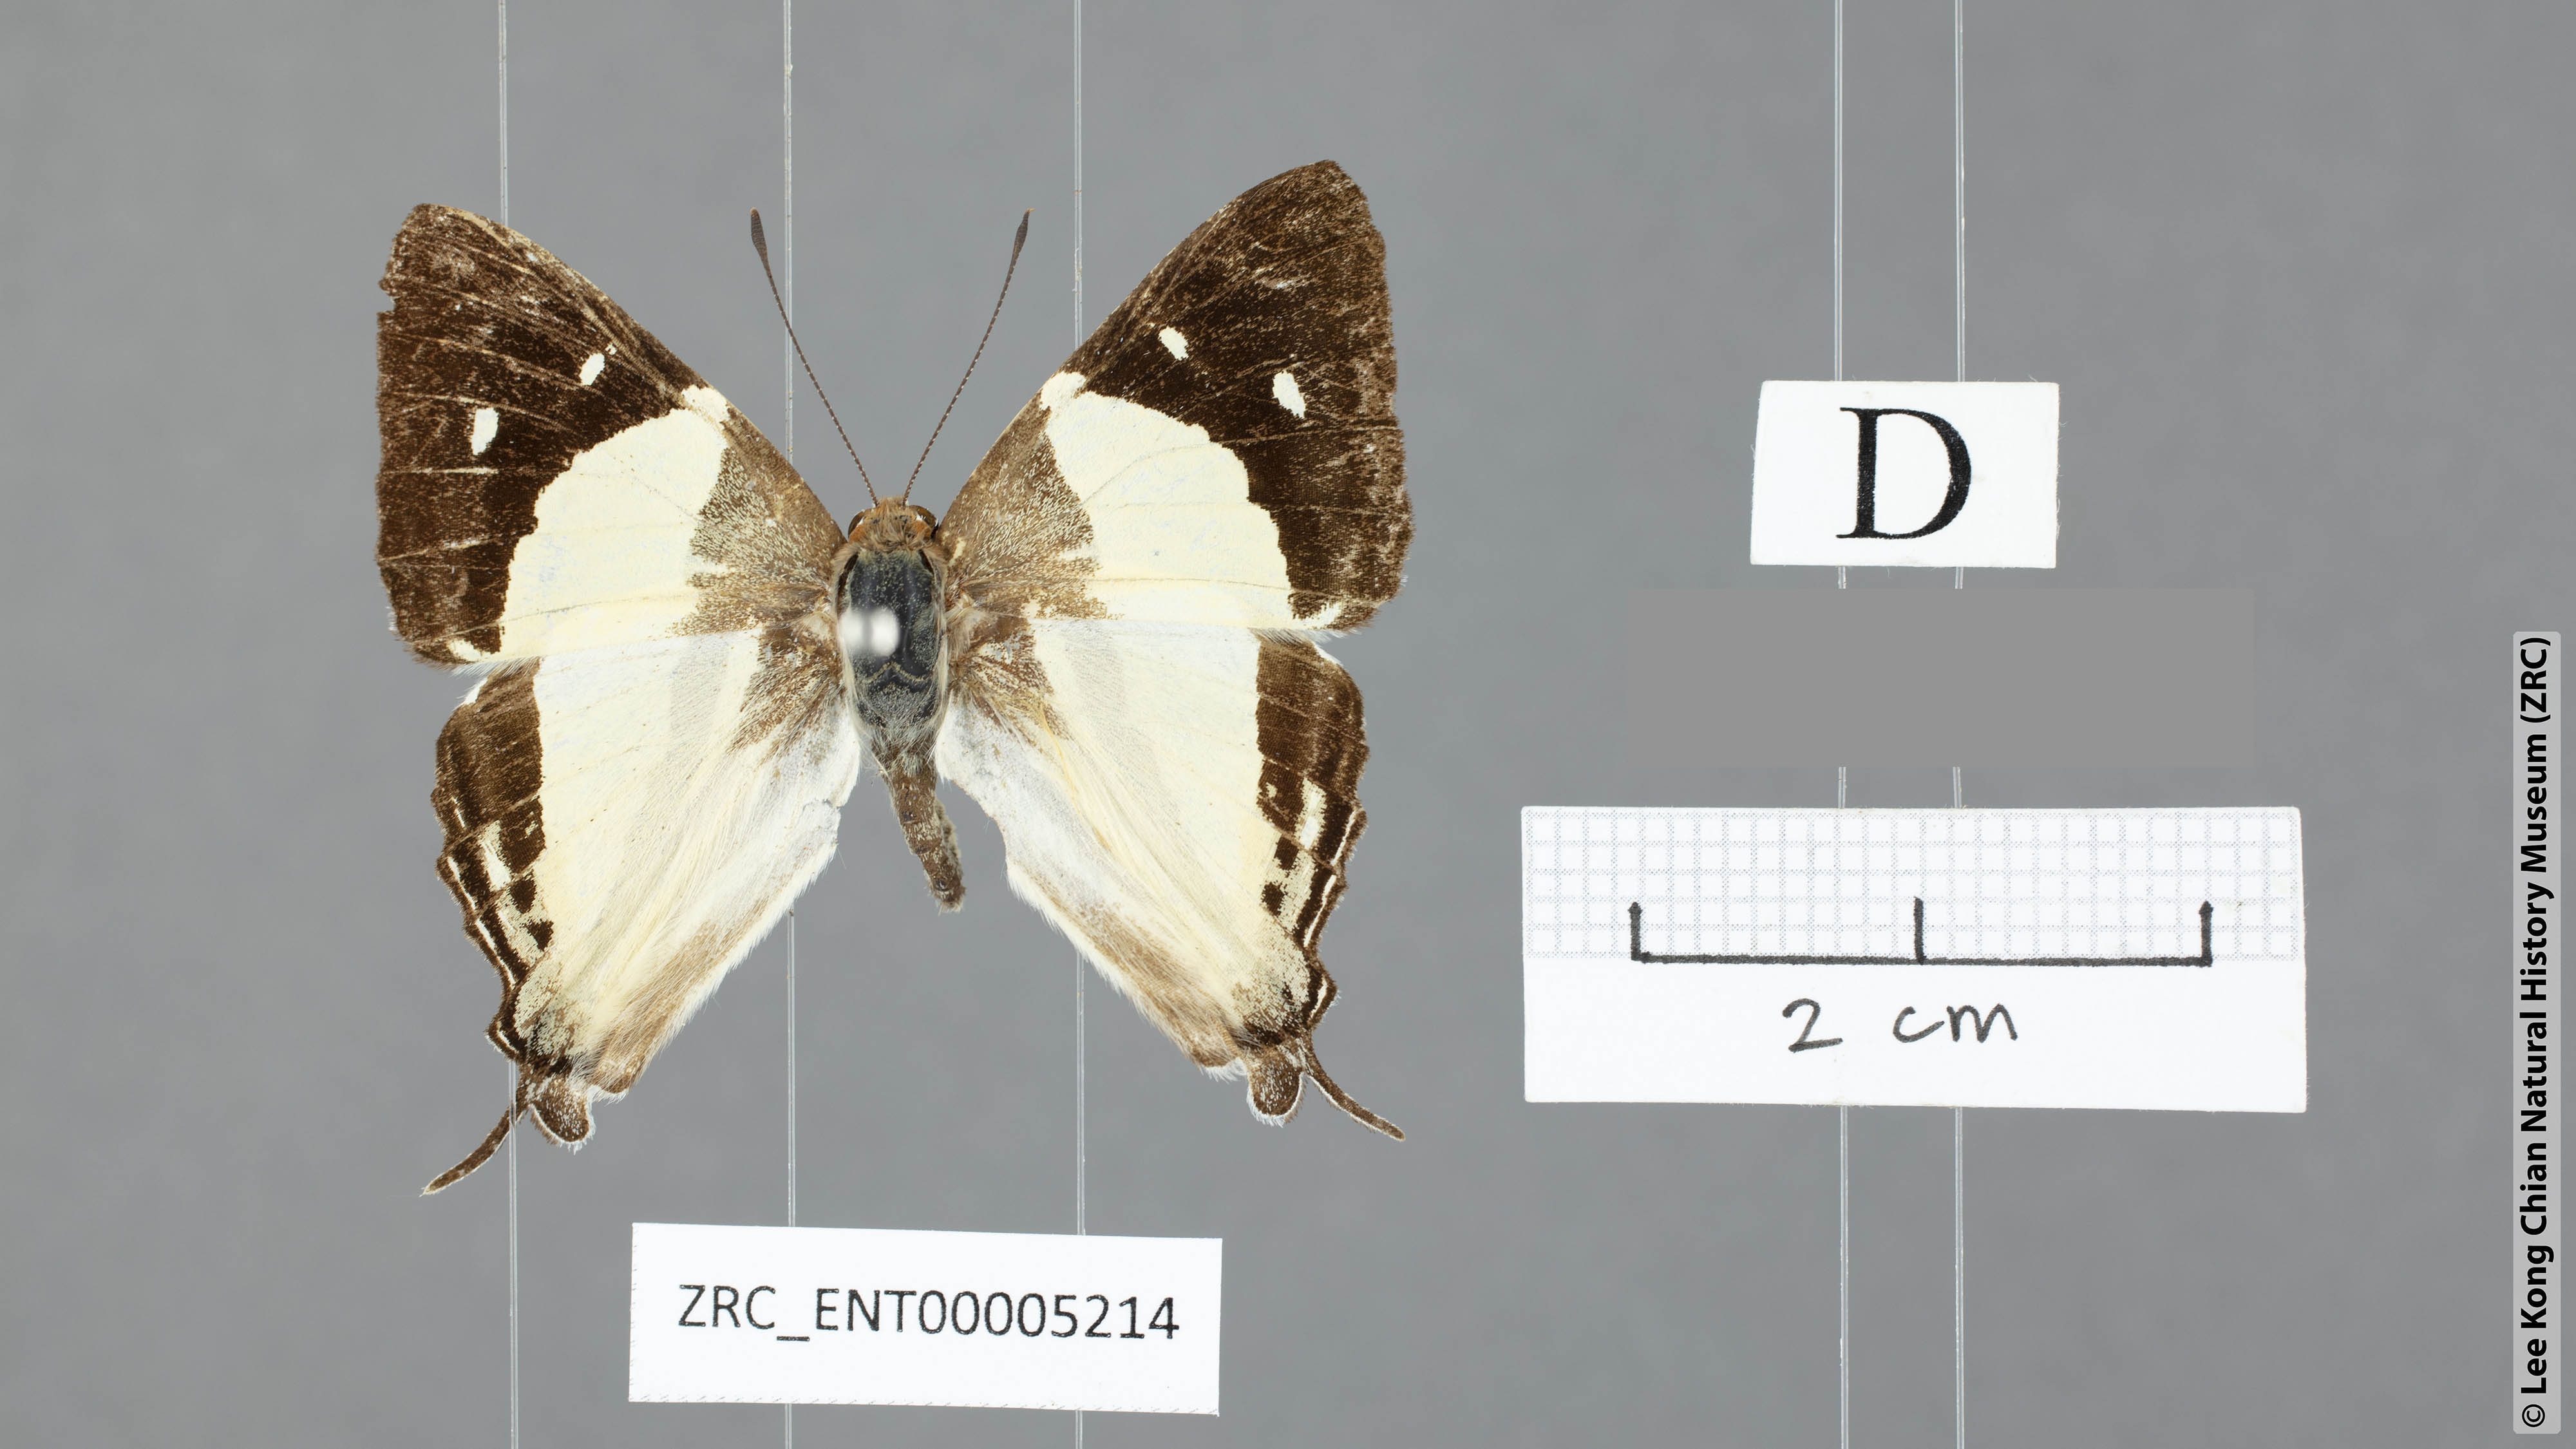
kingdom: Animalia
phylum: Arthropoda
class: Insecta
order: Lepidoptera
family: Lycaenidae
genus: Dodona
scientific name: Dodona deodata
